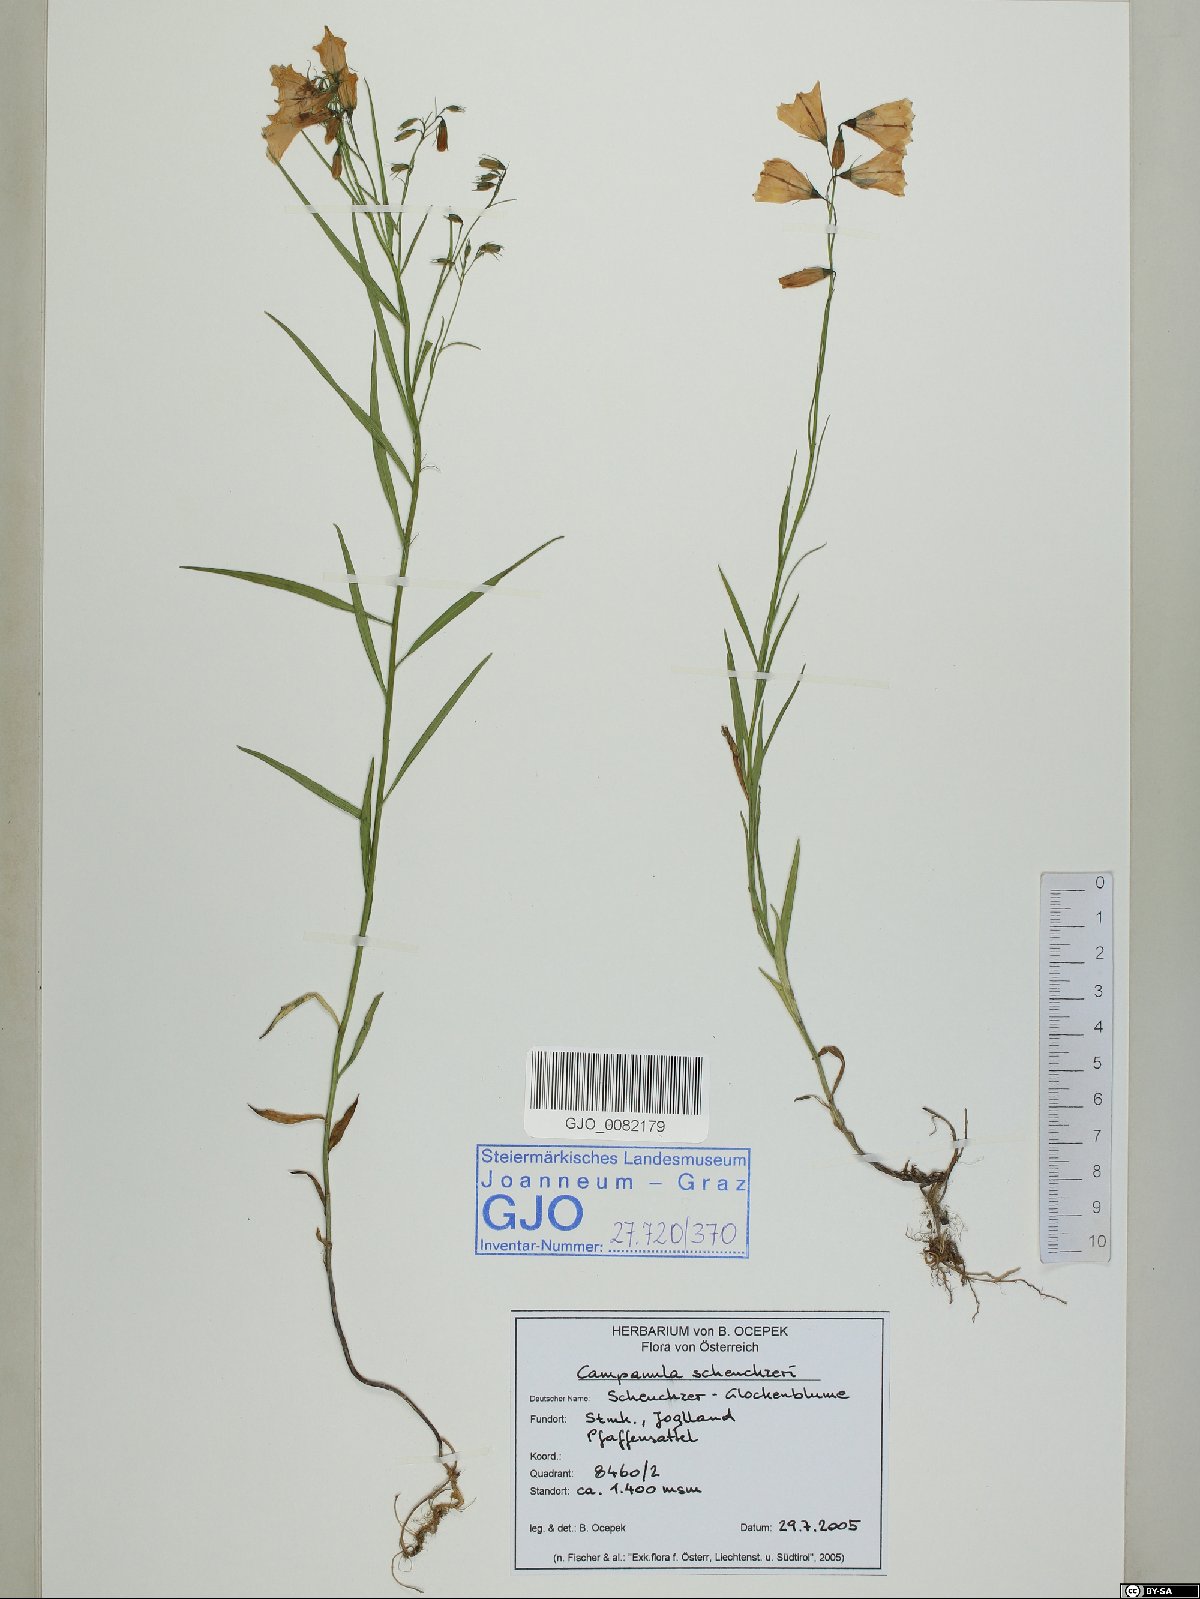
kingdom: Plantae
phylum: Tracheophyta
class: Magnoliopsida
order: Asterales
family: Campanulaceae
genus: Campanula
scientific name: Campanula scheuchzeri
